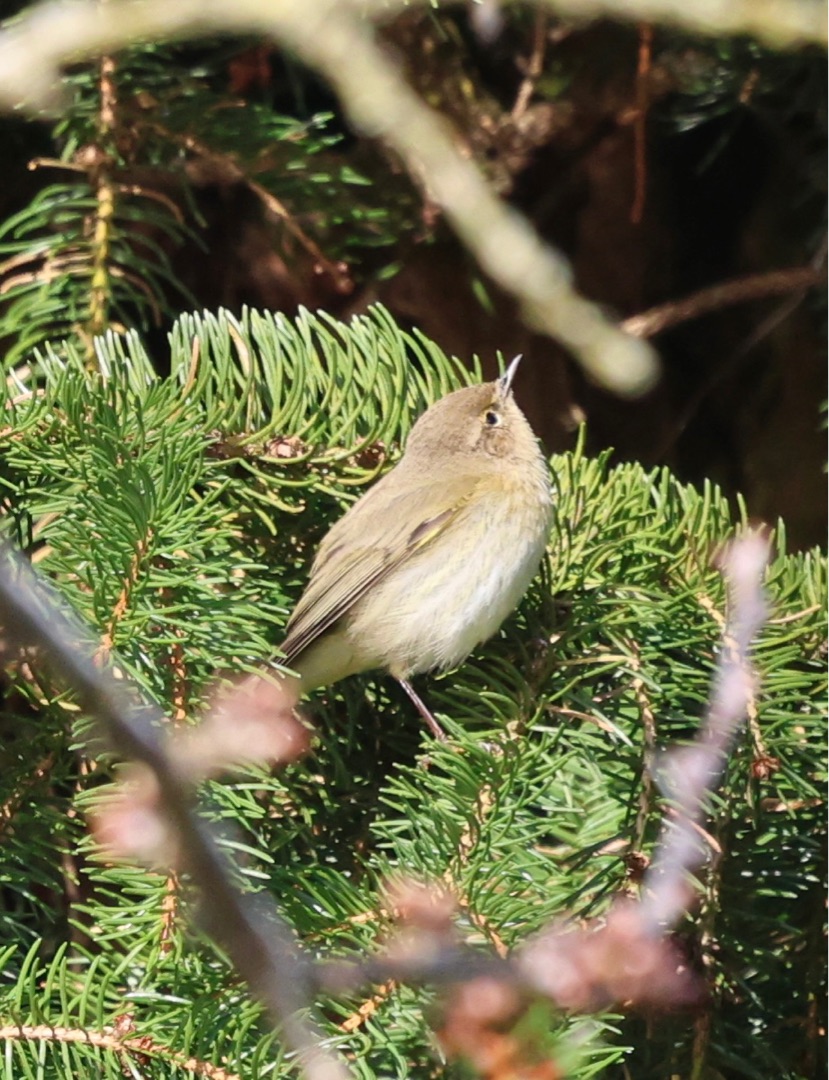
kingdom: Animalia
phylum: Chordata
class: Aves
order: Passeriformes
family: Phylloscopidae
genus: Phylloscopus
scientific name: Phylloscopus collybita
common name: Gransanger
